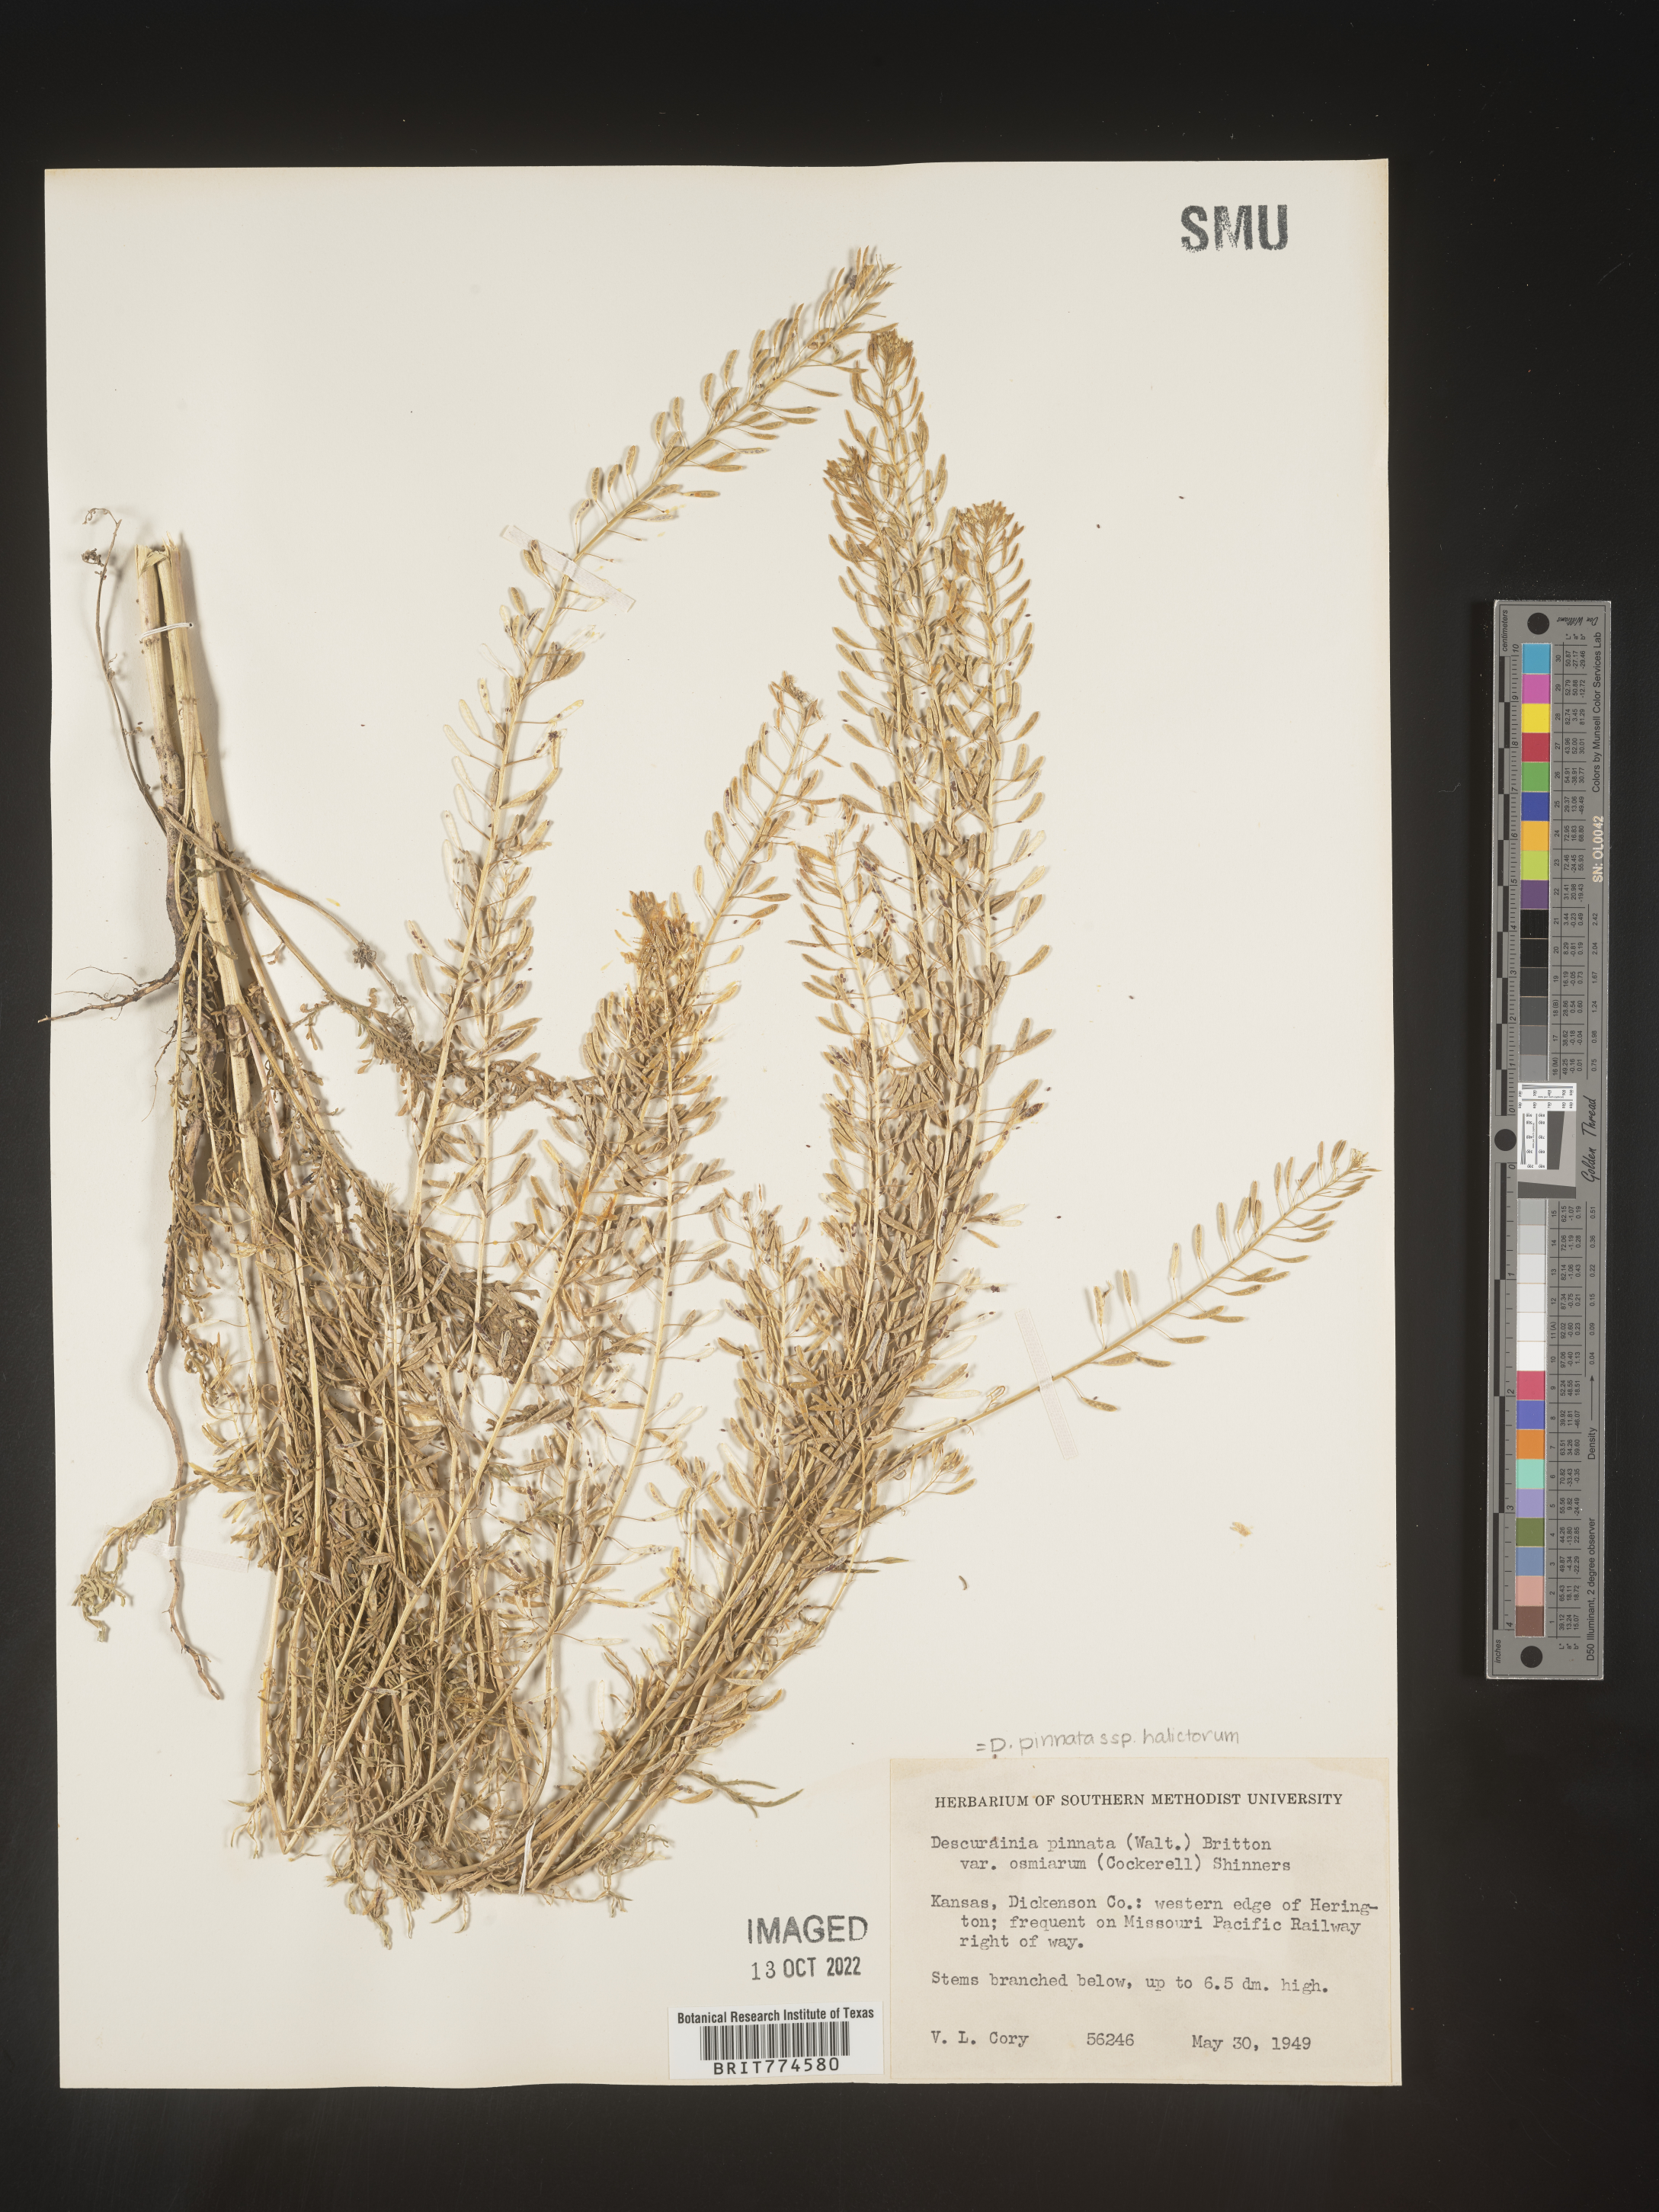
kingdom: Plantae
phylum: Tracheophyta
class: Magnoliopsida
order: Brassicales
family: Brassicaceae
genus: Descurainia
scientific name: Descurainia pinnata
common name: Western tansy mustard
